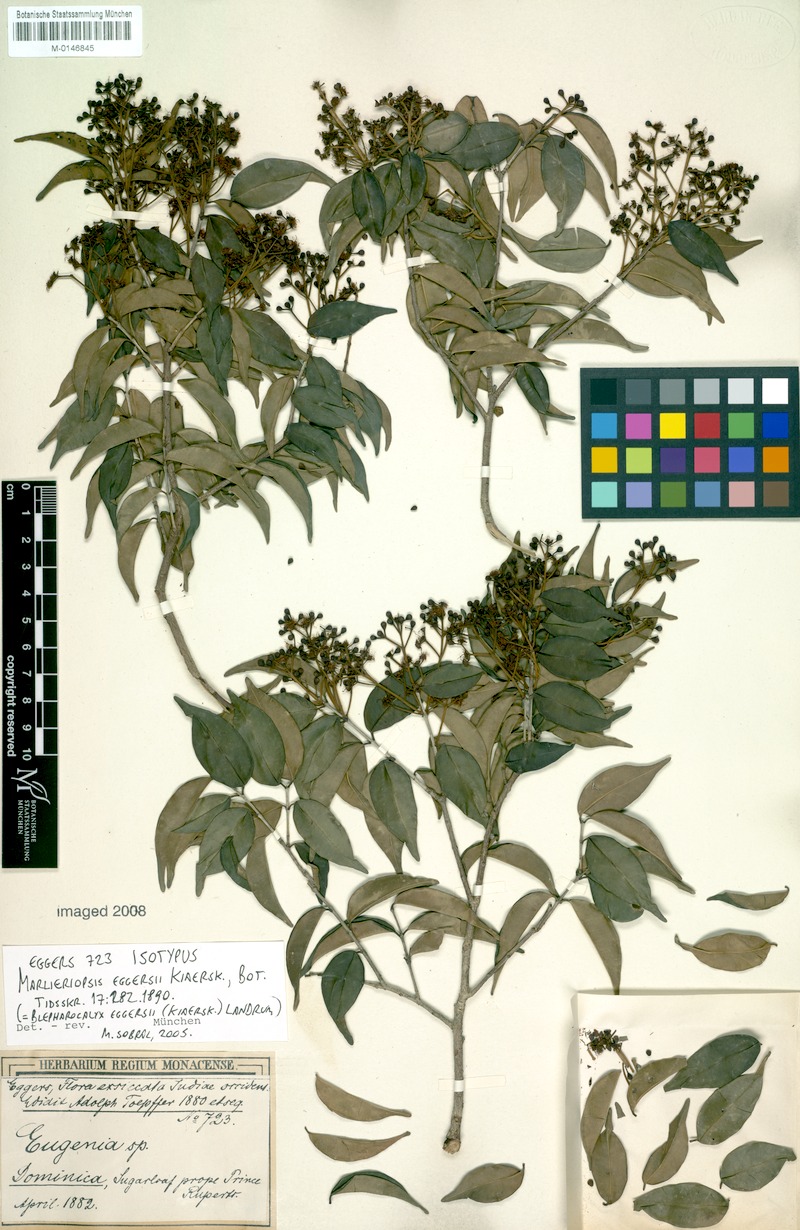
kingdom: Plantae
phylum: Tracheophyta
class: Magnoliopsida
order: Myrtales
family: Myrtaceae
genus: Blepharocalyx
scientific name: Blepharocalyx eggersii
